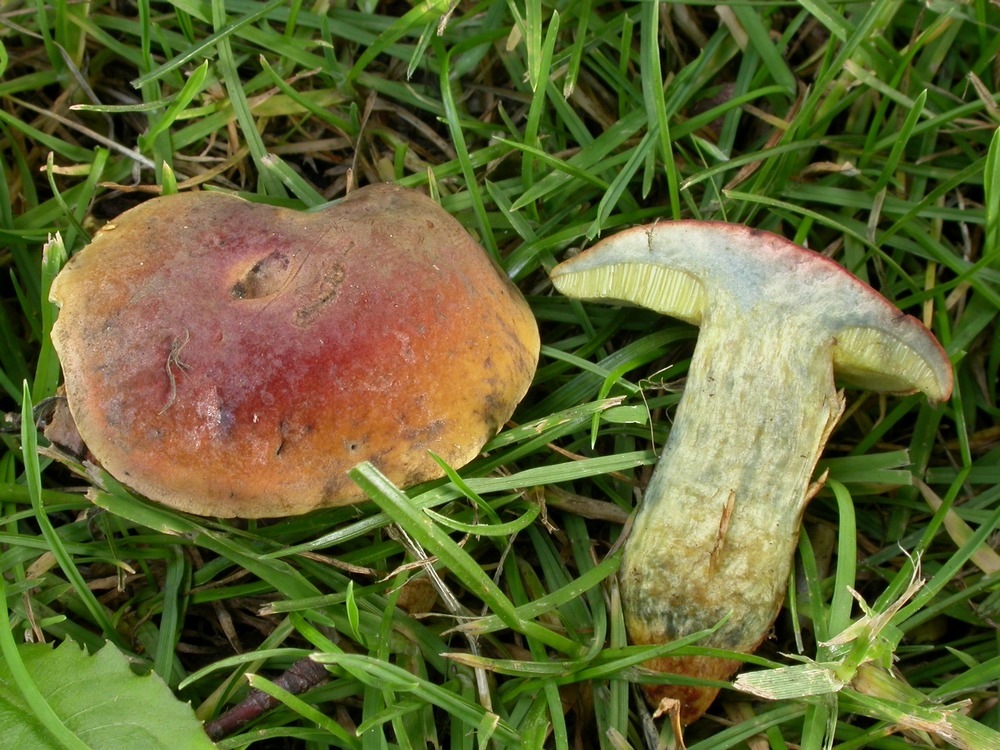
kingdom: Fungi
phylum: Basidiomycota
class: Agaricomycetes
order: Boletales
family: Boletaceae
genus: Hortiboletus
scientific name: Hortiboletus bubalinus
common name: aurora-rørhat
